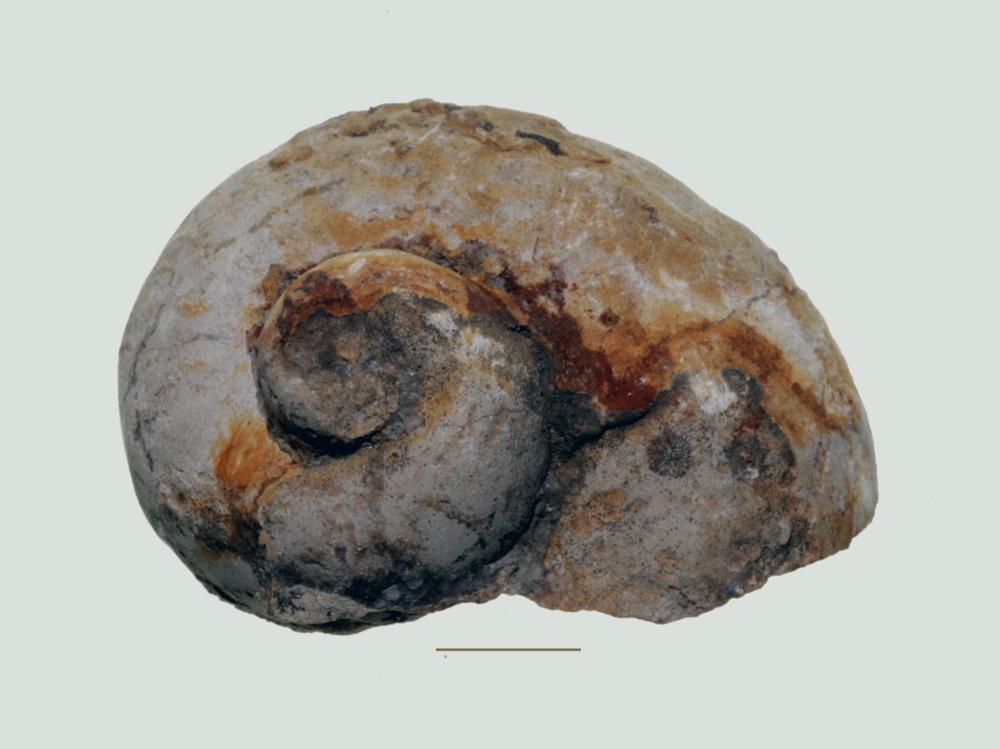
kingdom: Animalia
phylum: Mollusca
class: Gastropoda
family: Holopeidae
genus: Holopea
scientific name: Holopea ampullacea
